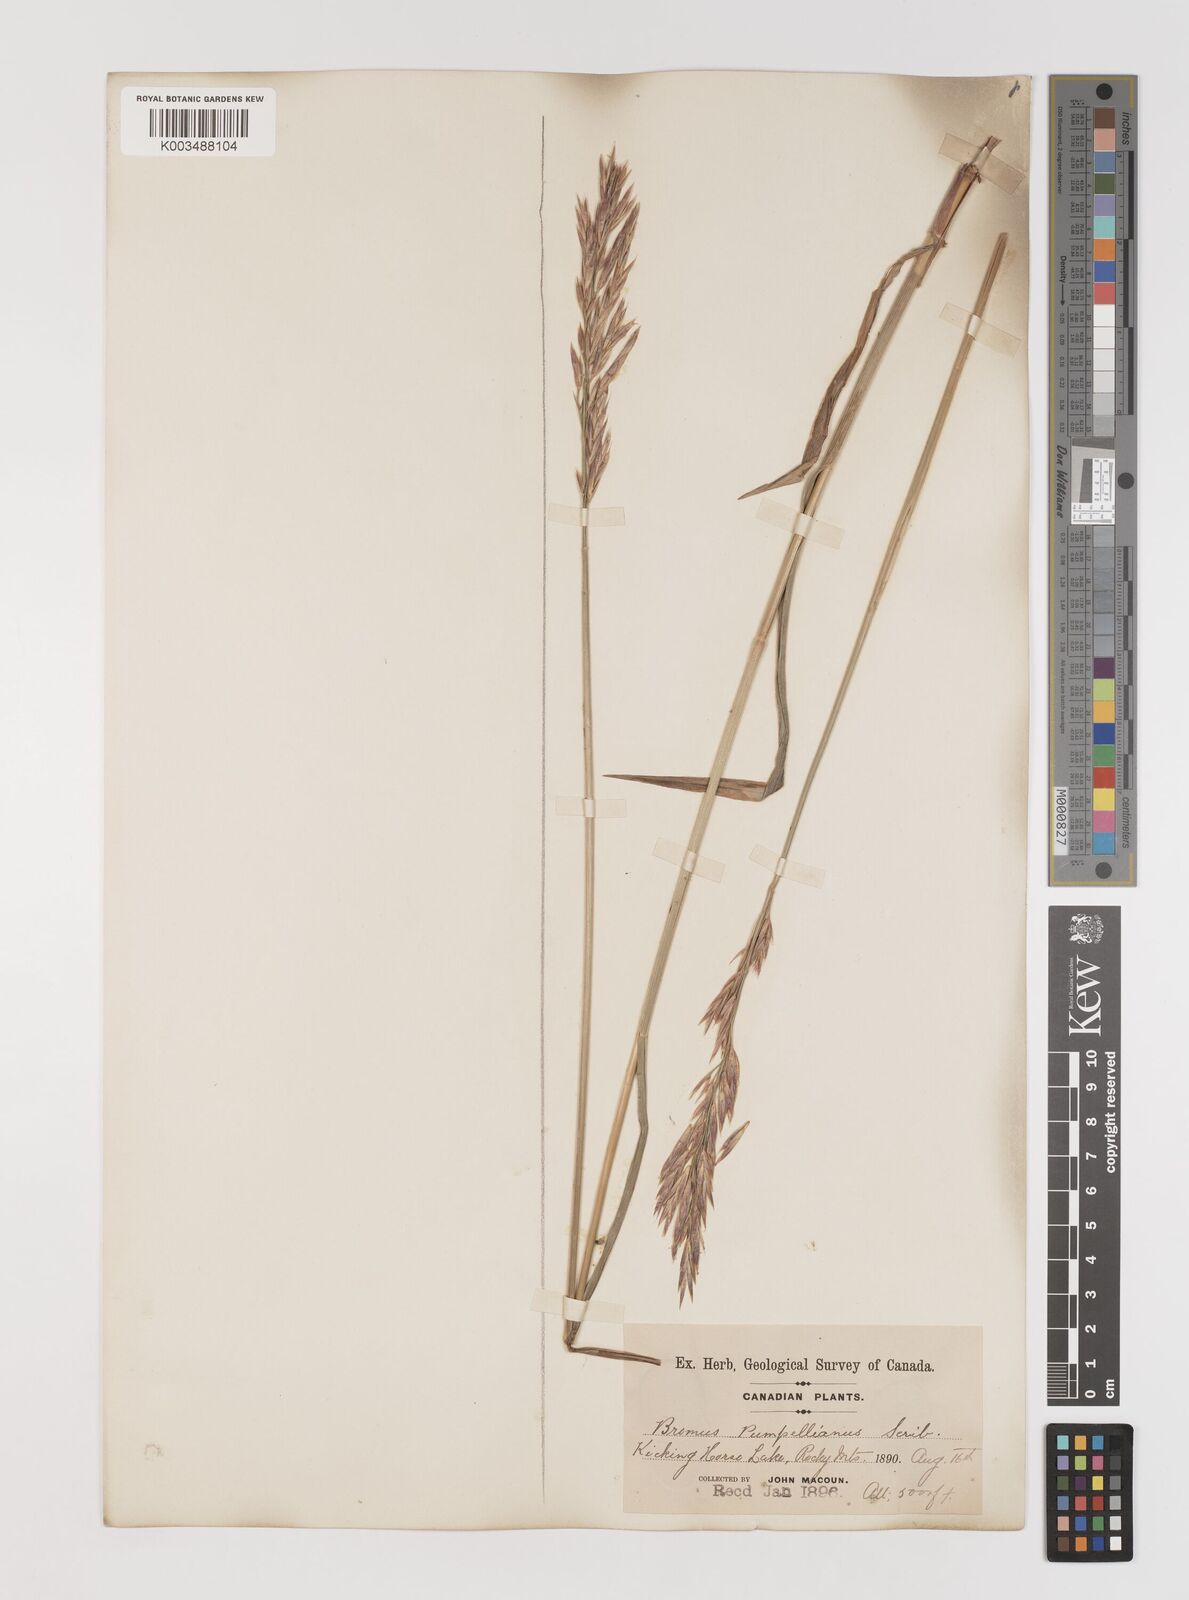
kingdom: Plantae
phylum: Tracheophyta
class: Liliopsida
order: Poales
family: Poaceae
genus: Bromus
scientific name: Bromus pumpellianus
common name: Pumpelly's brome
